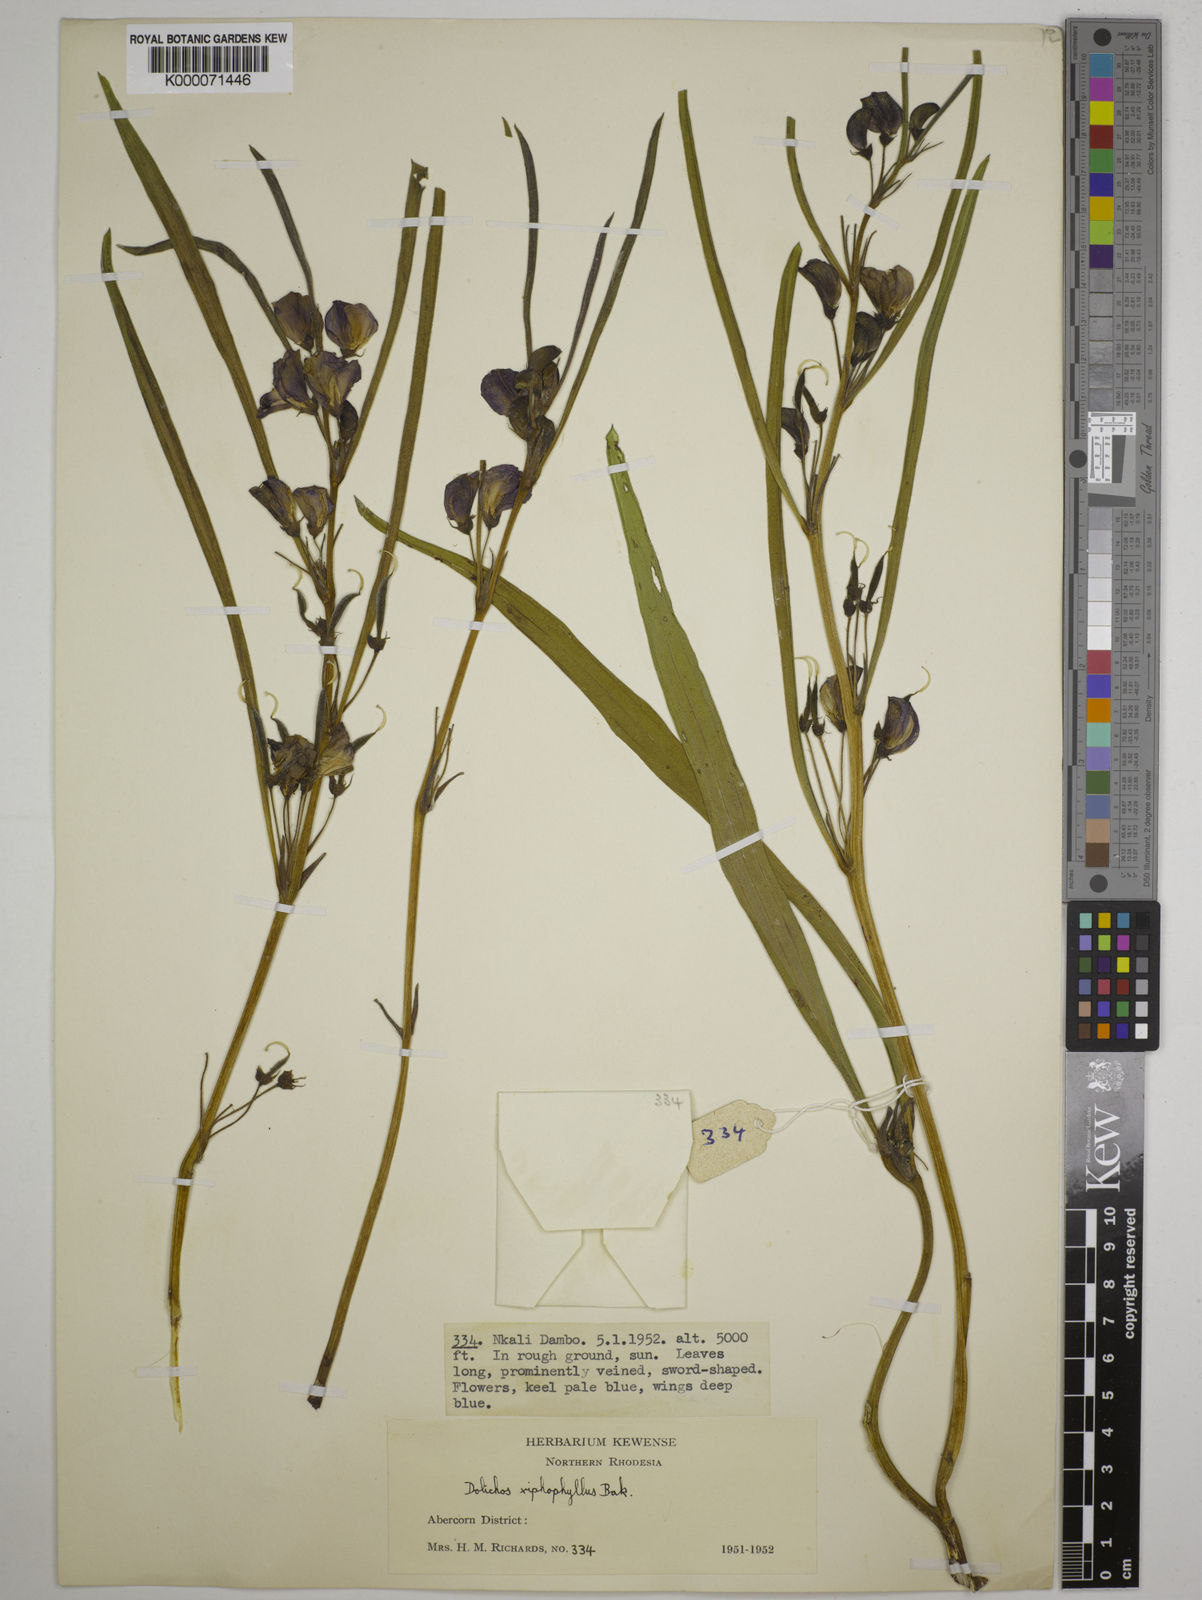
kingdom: Plantae
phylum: Tracheophyta
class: Magnoliopsida
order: Fabales
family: Fabaceae
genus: Dolichos
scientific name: Dolichos xiphophyllus
